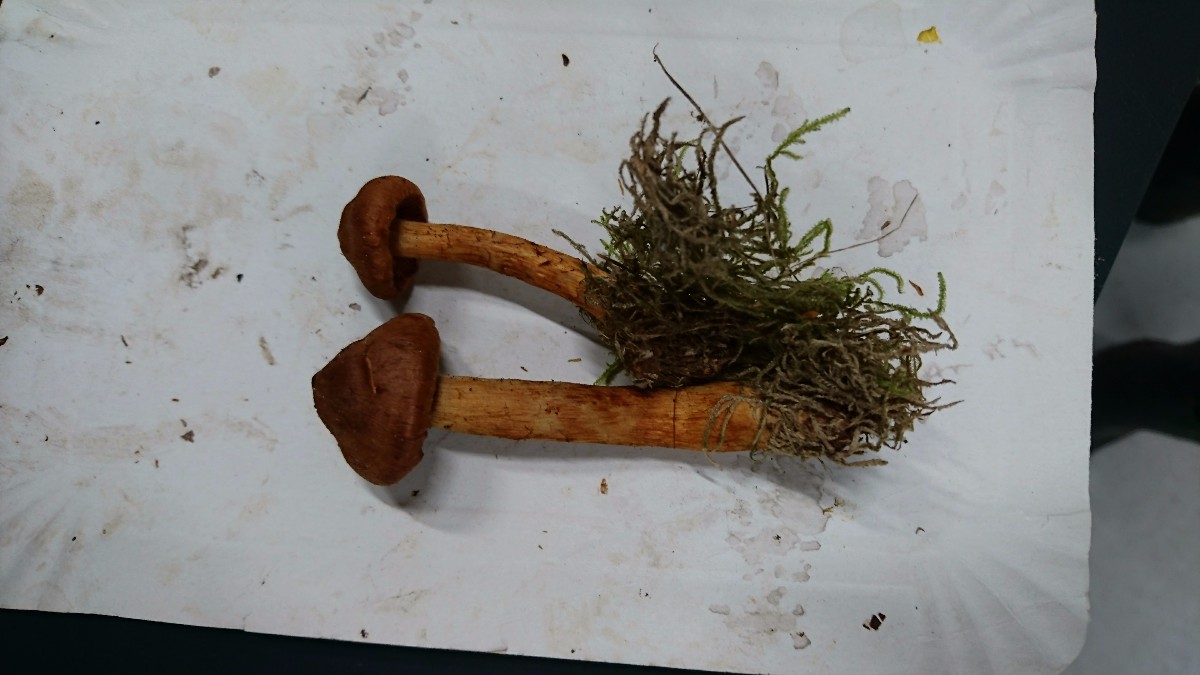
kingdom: Fungi
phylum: Basidiomycota
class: Agaricomycetes
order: Agaricales
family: Cortinariaceae
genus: Cortinarius
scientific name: Cortinarius rubellus
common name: puklet gift-slørhat
